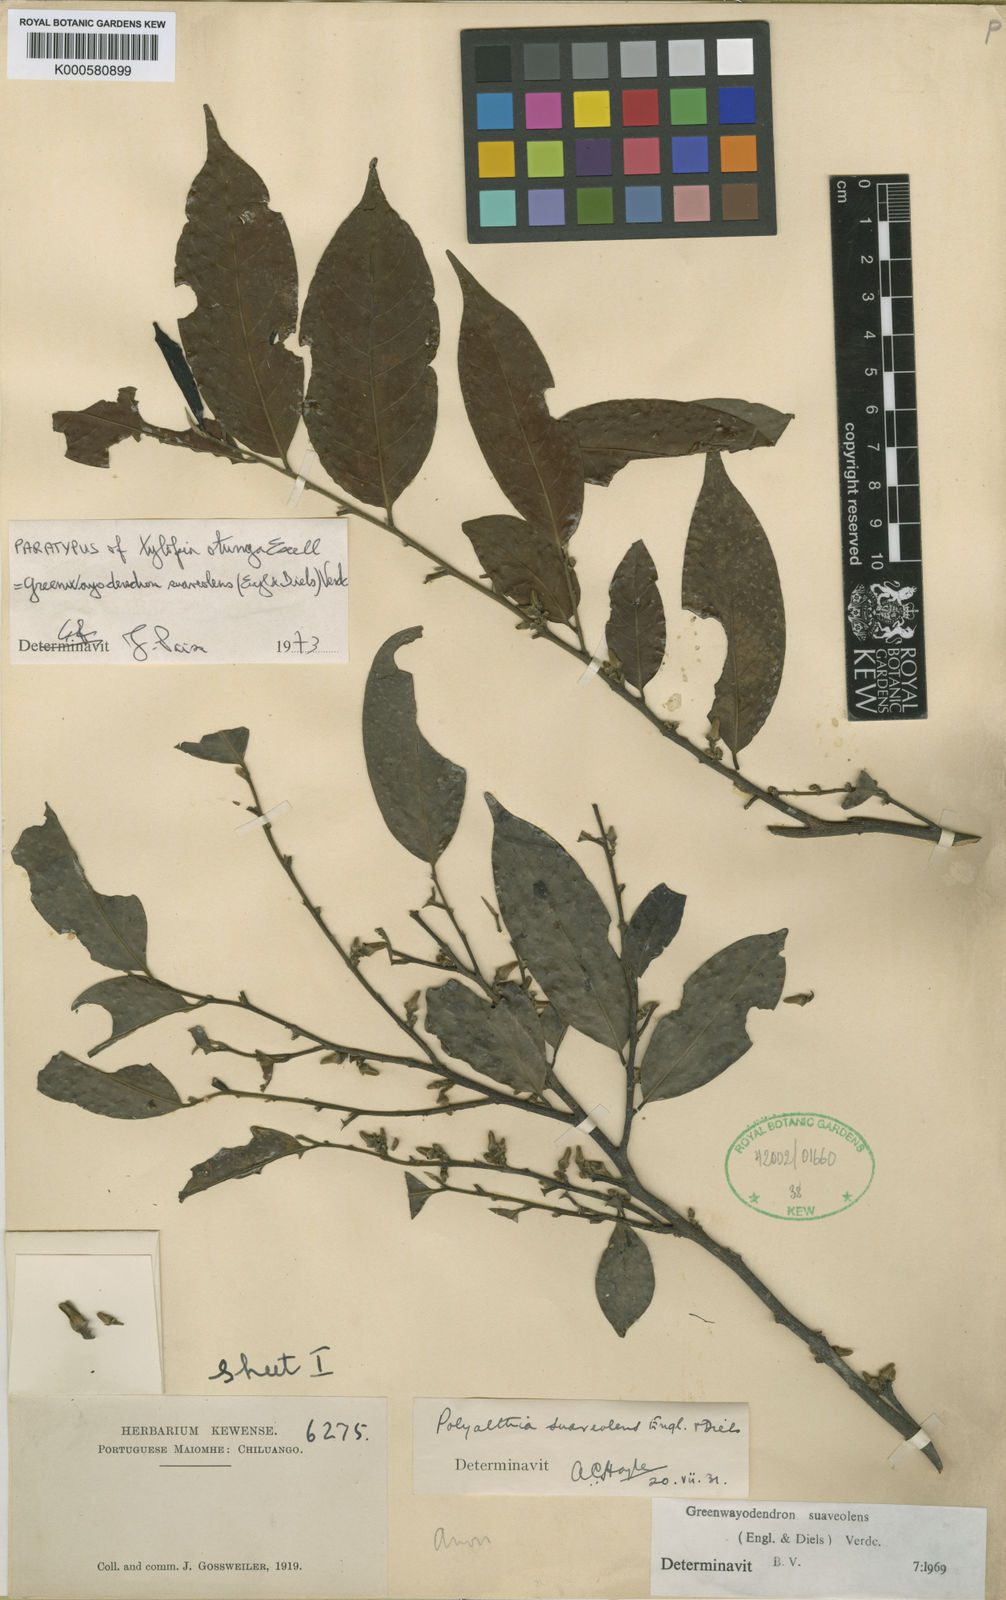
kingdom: Plantae
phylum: Tracheophyta
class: Magnoliopsida
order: Magnoliales
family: Annonaceae
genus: Greenwayodendron
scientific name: Greenwayodendron suaveolens
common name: Molinda
